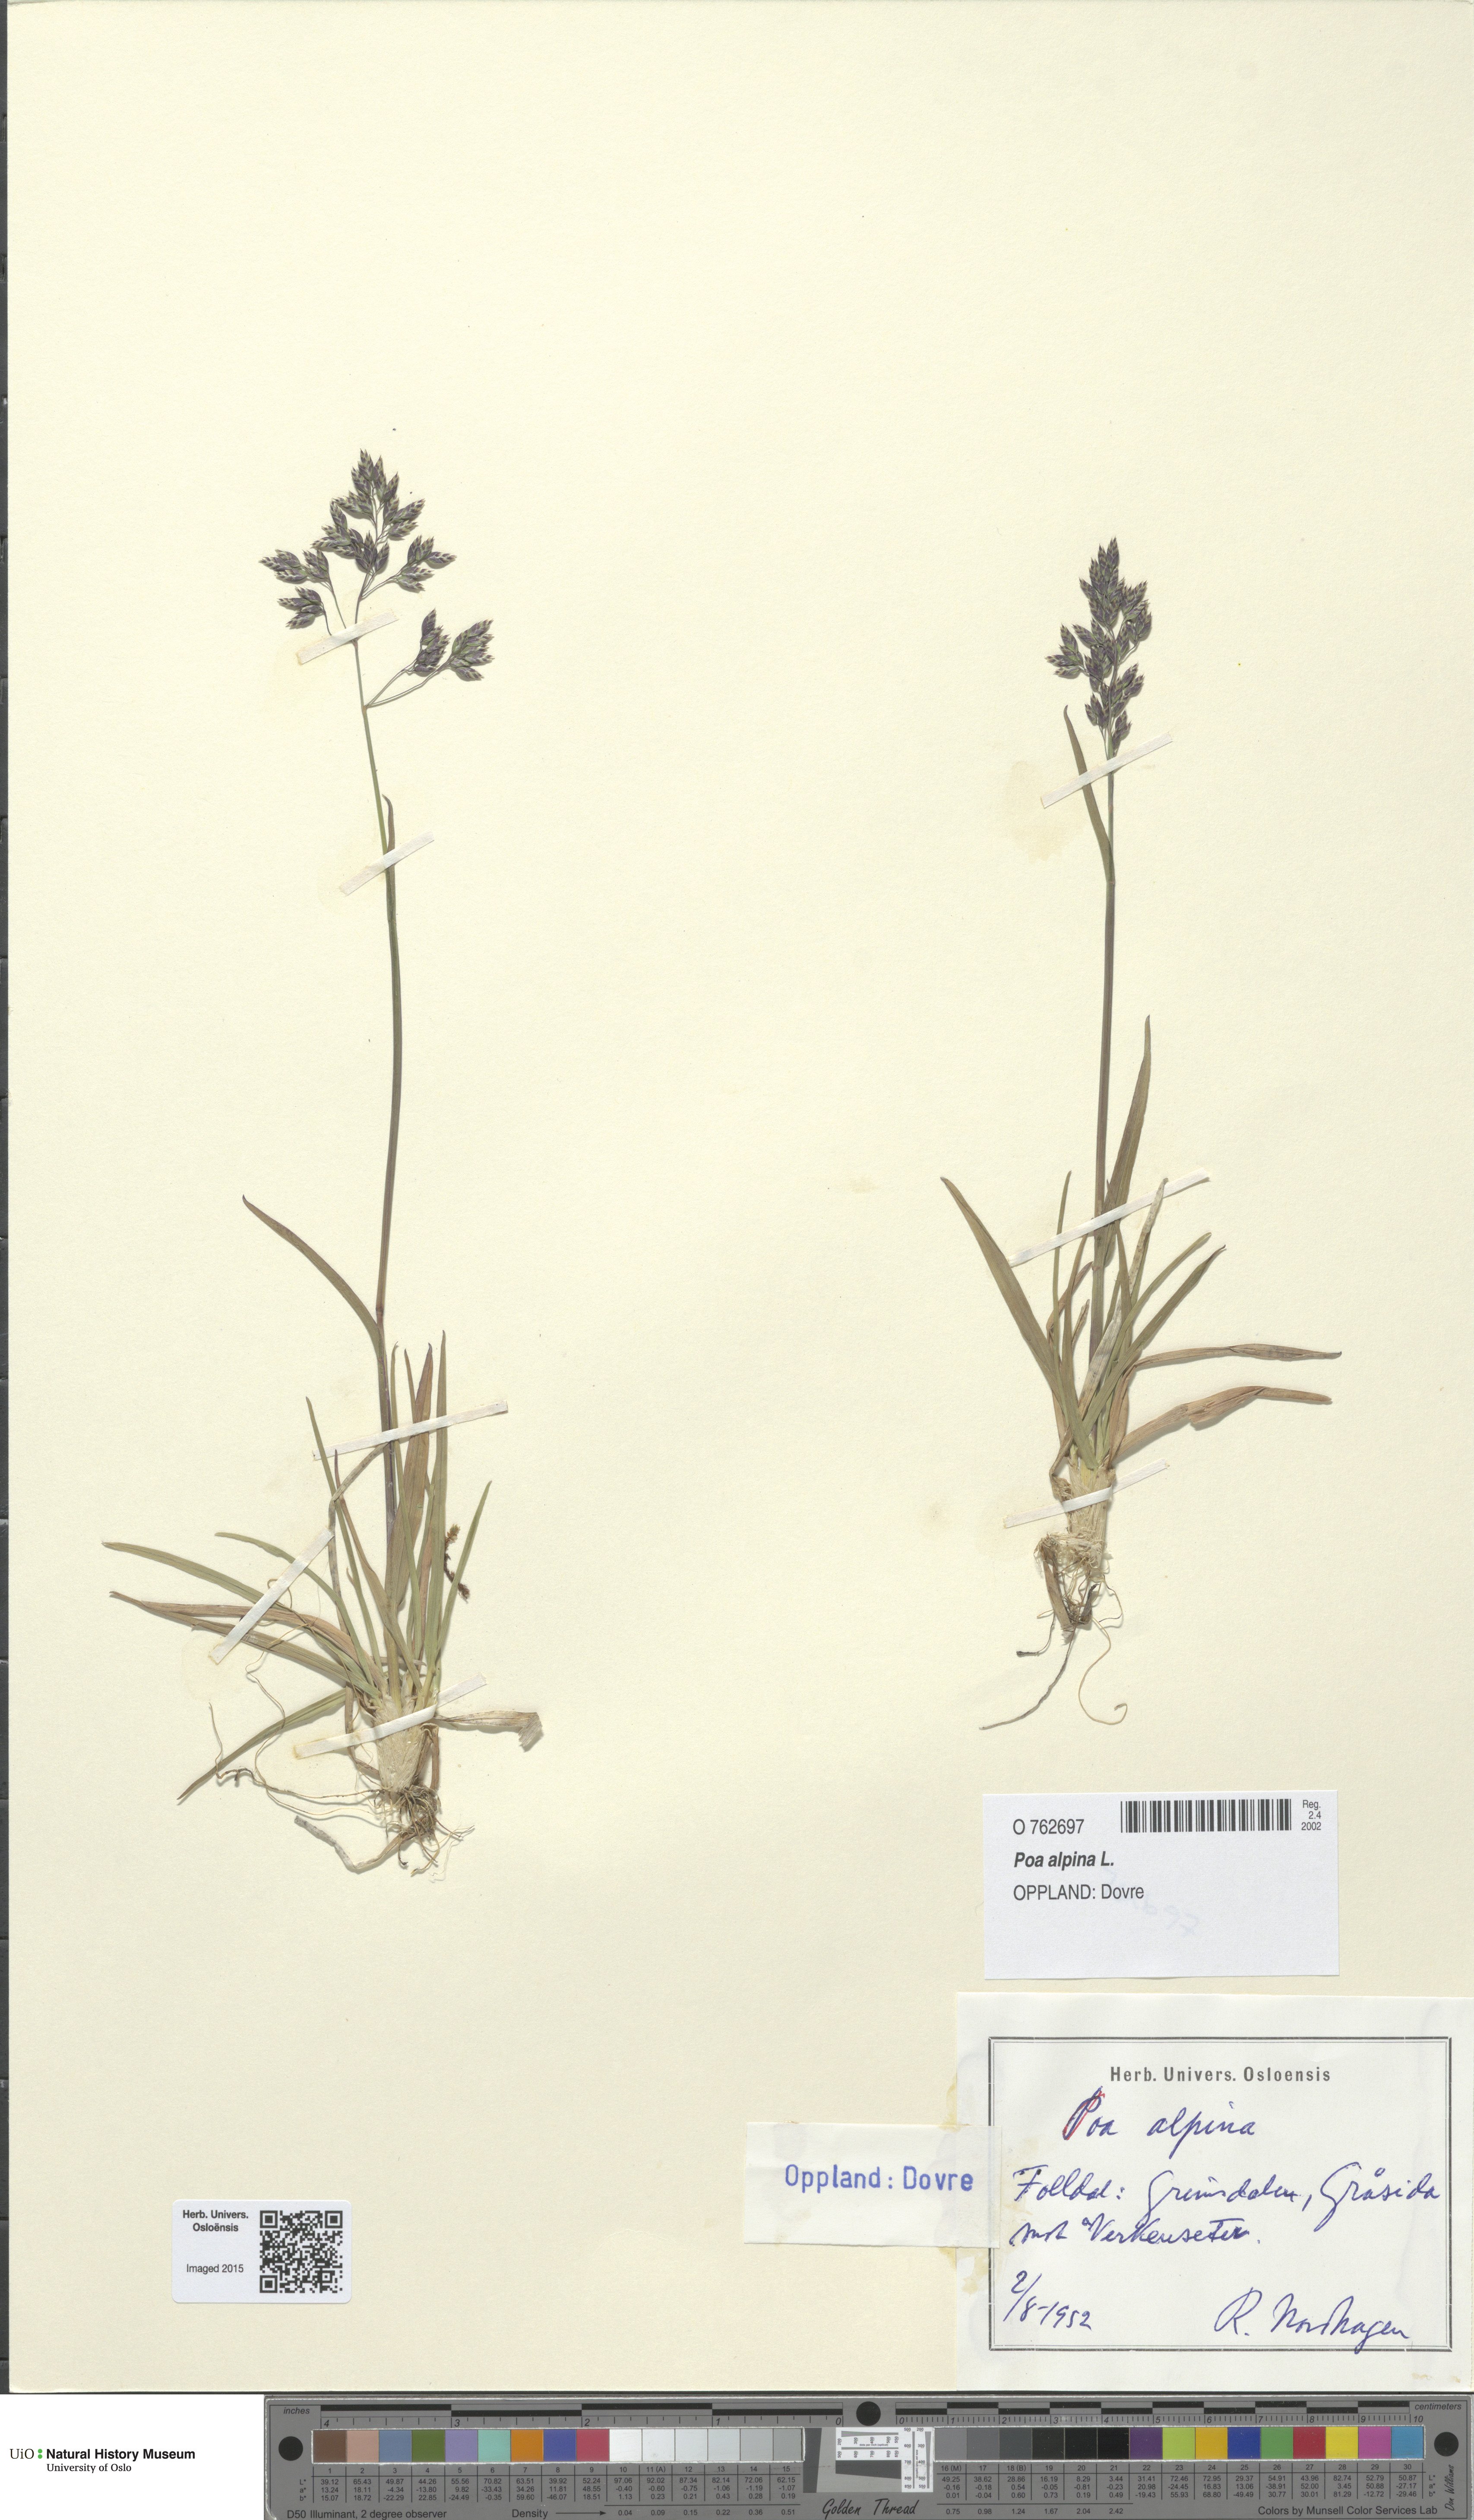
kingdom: Plantae
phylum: Tracheophyta
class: Liliopsida
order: Poales
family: Poaceae
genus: Poa
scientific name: Poa alpina
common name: Alpine bluegrass
